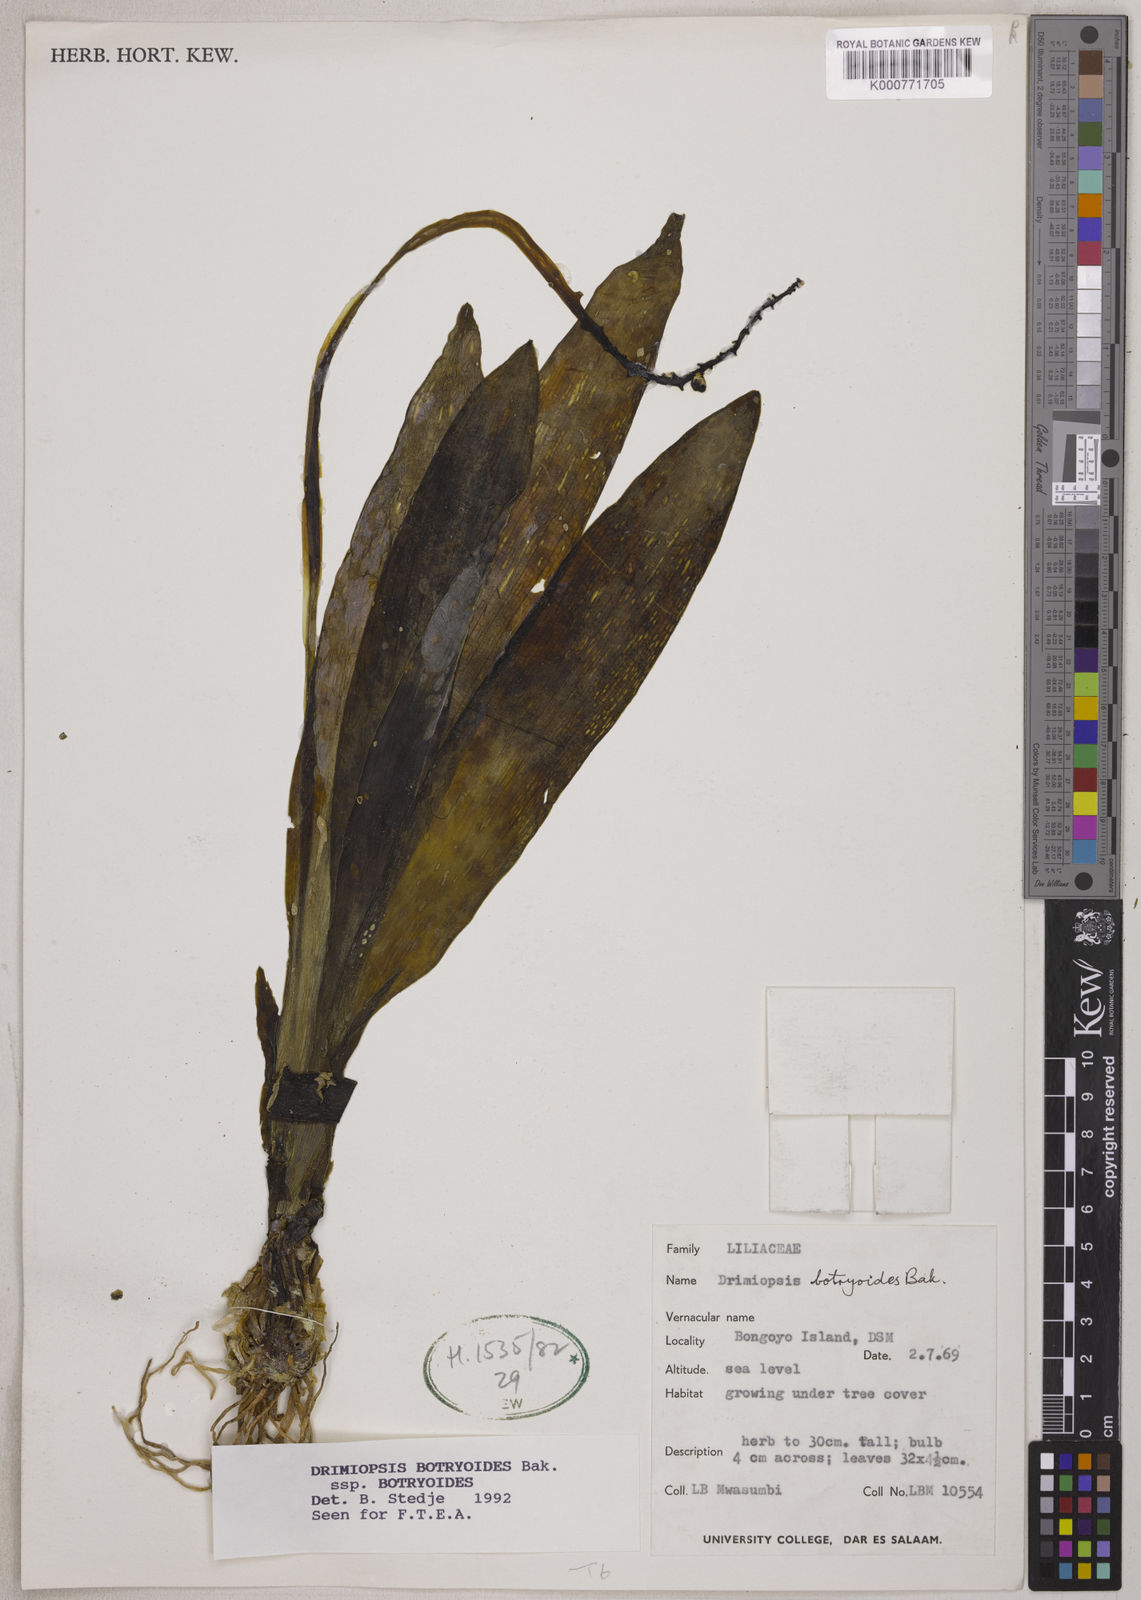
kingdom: Plantae
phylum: Tracheophyta
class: Liliopsida
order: Asparagales
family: Asparagaceae
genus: Drimiopsis
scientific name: Drimiopsis botryoides
